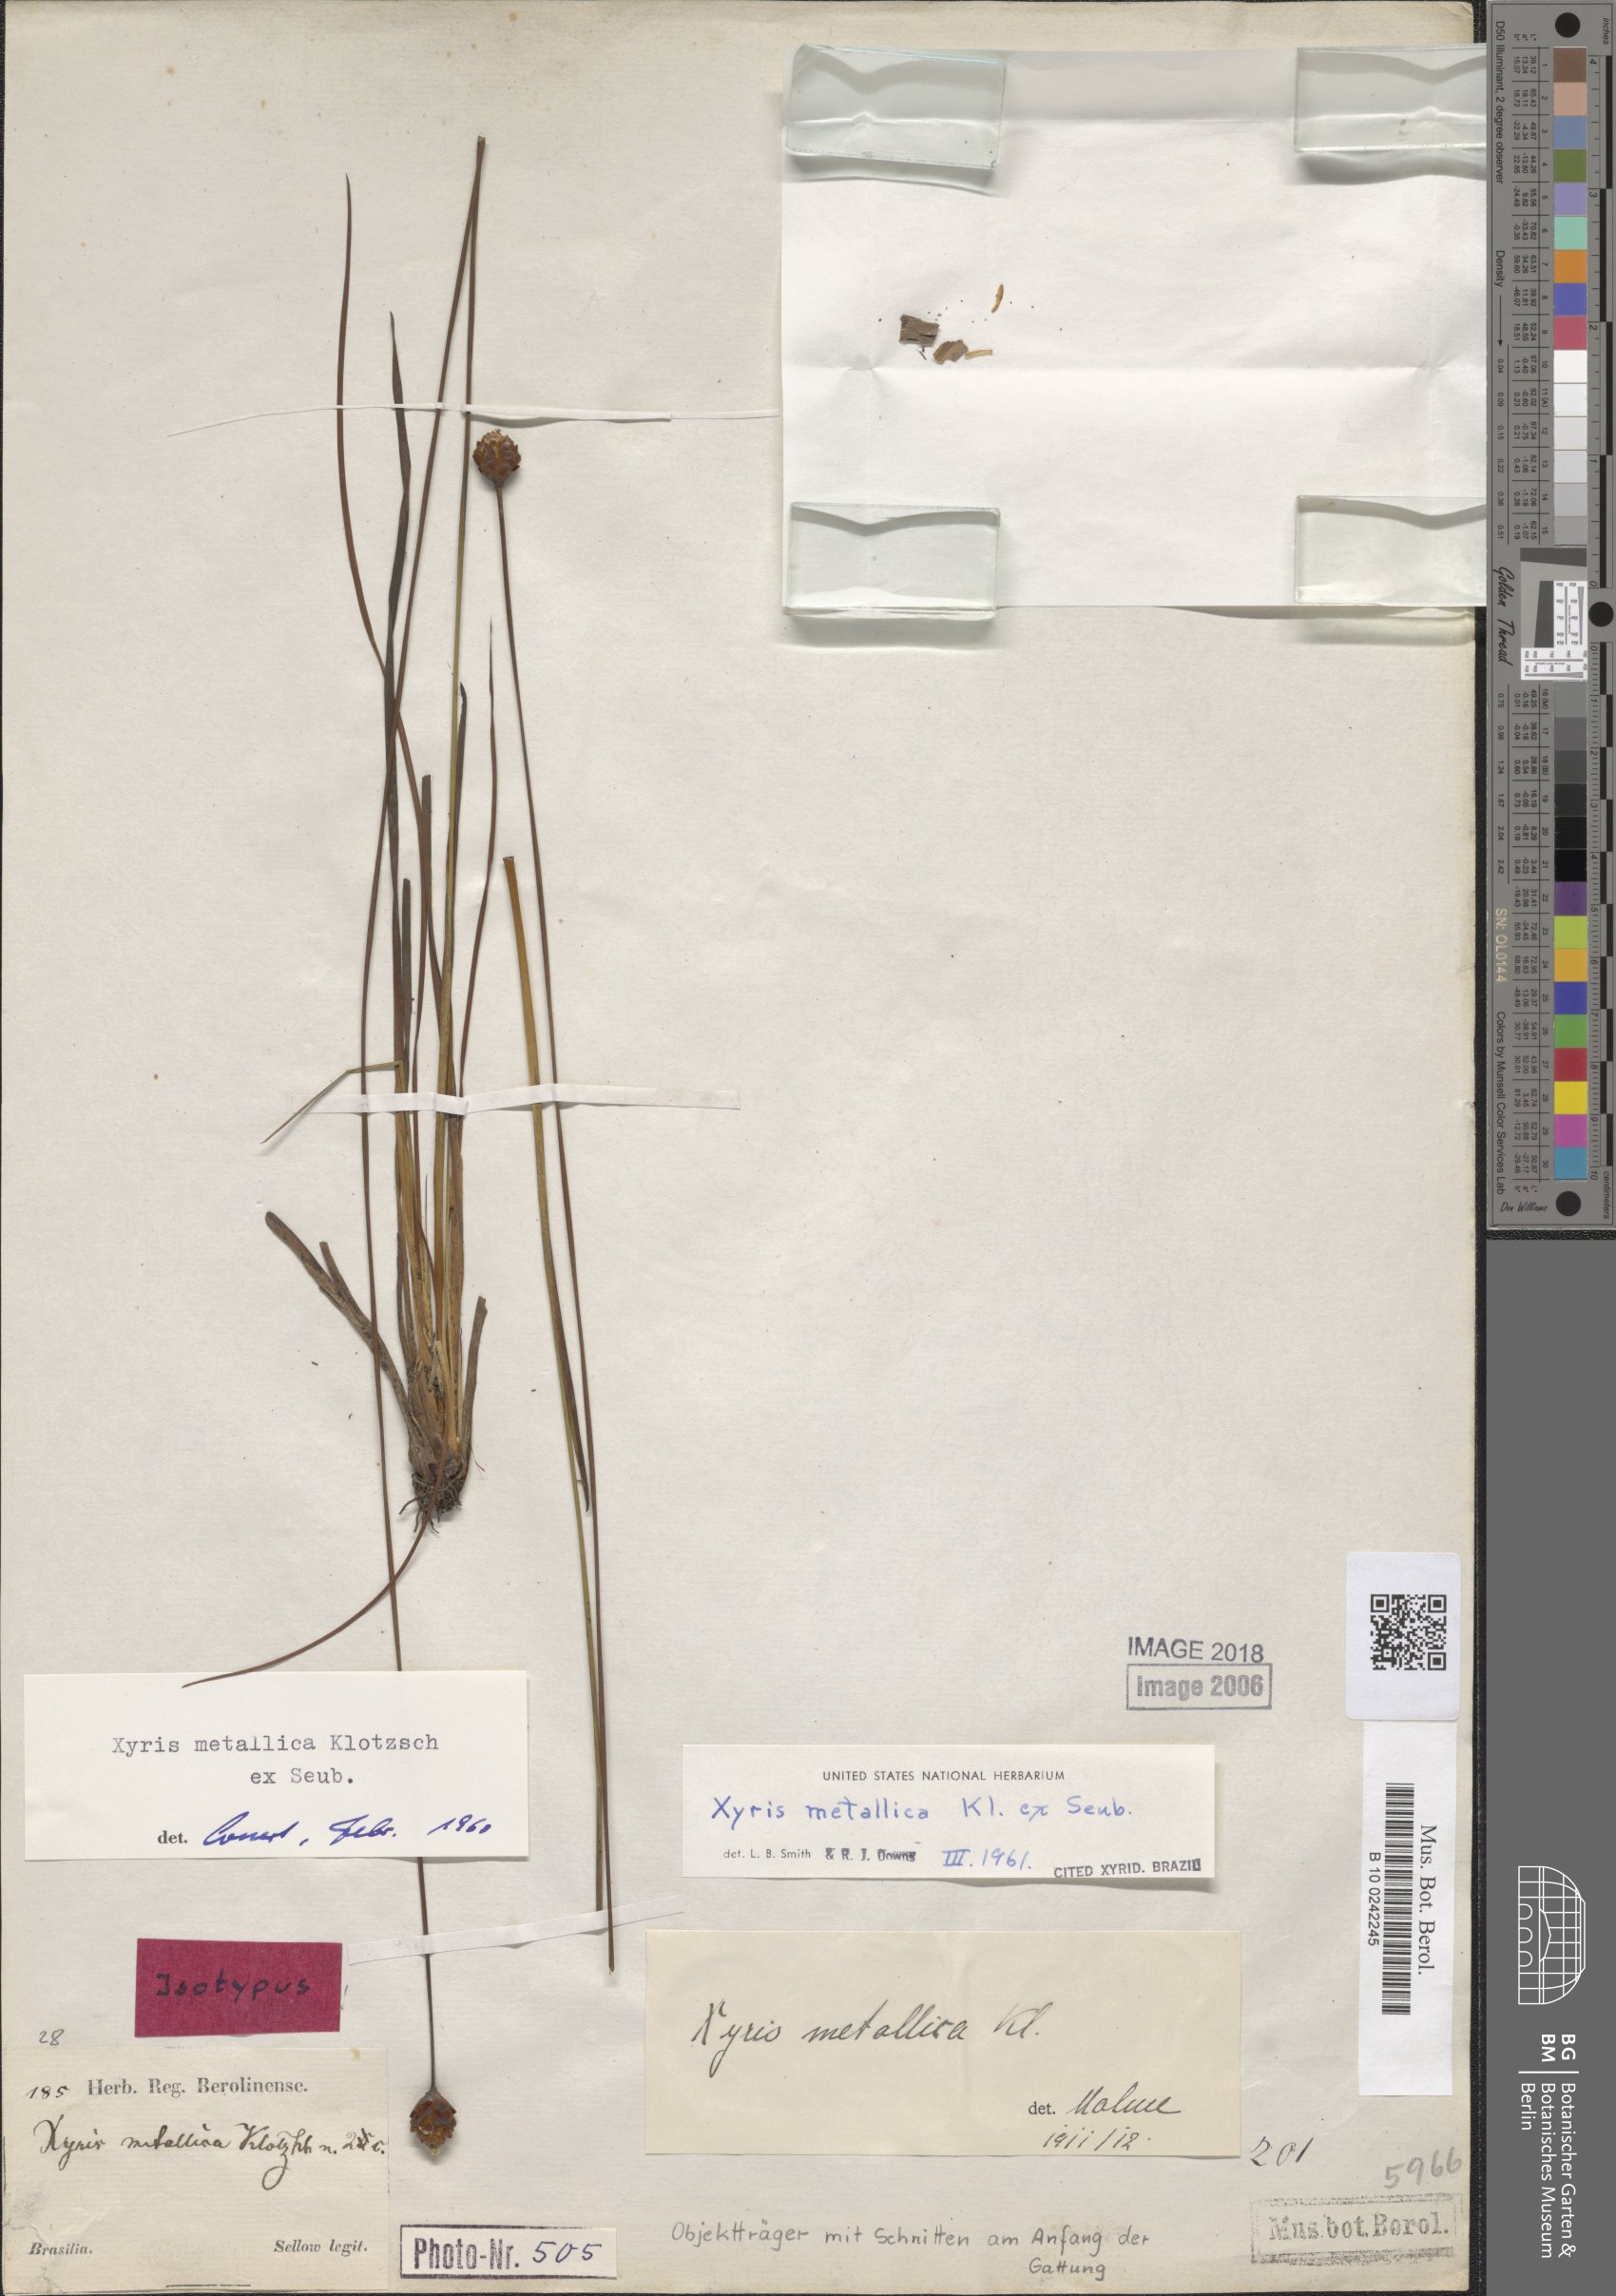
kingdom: Plantae
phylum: Tracheophyta
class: Liliopsida
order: Poales
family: Xyridaceae
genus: Xyris
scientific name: Xyris metallica
